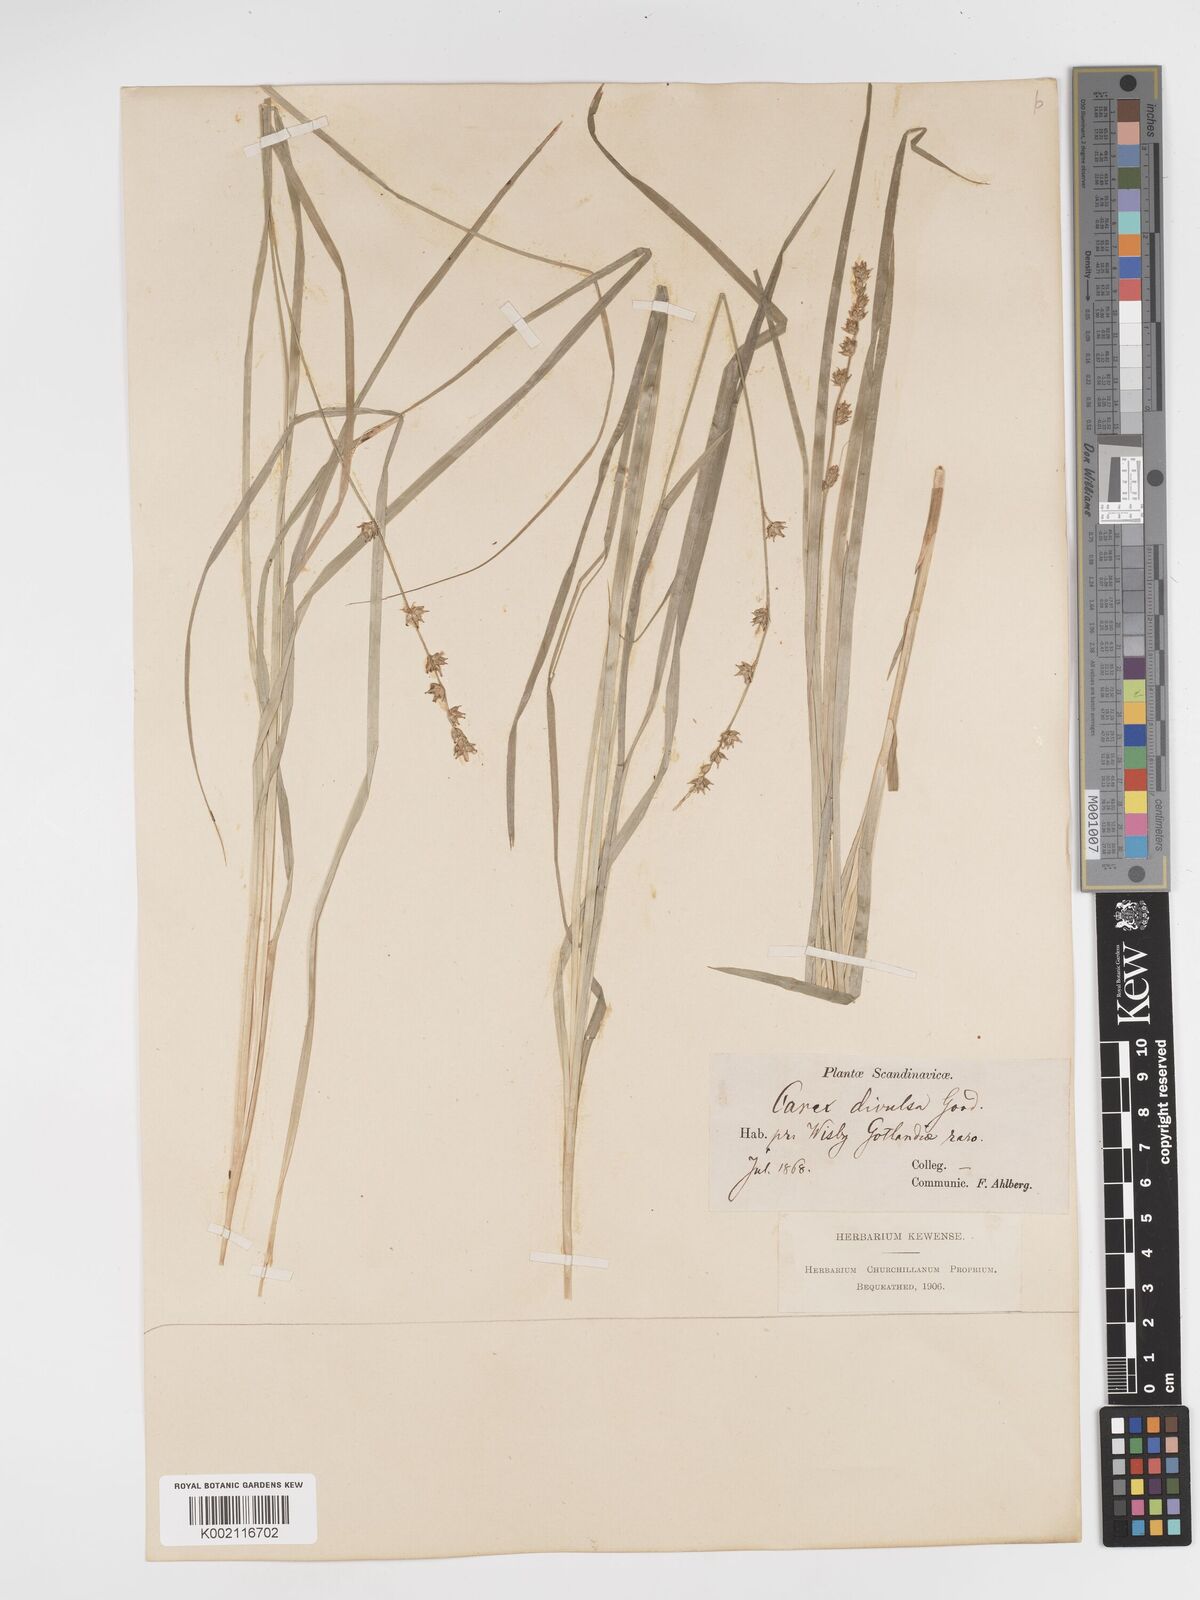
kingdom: Plantae
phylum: Tracheophyta
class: Liliopsida
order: Poales
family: Cyperaceae
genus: Carex
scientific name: Carex divulsa
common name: Grassland sedge
